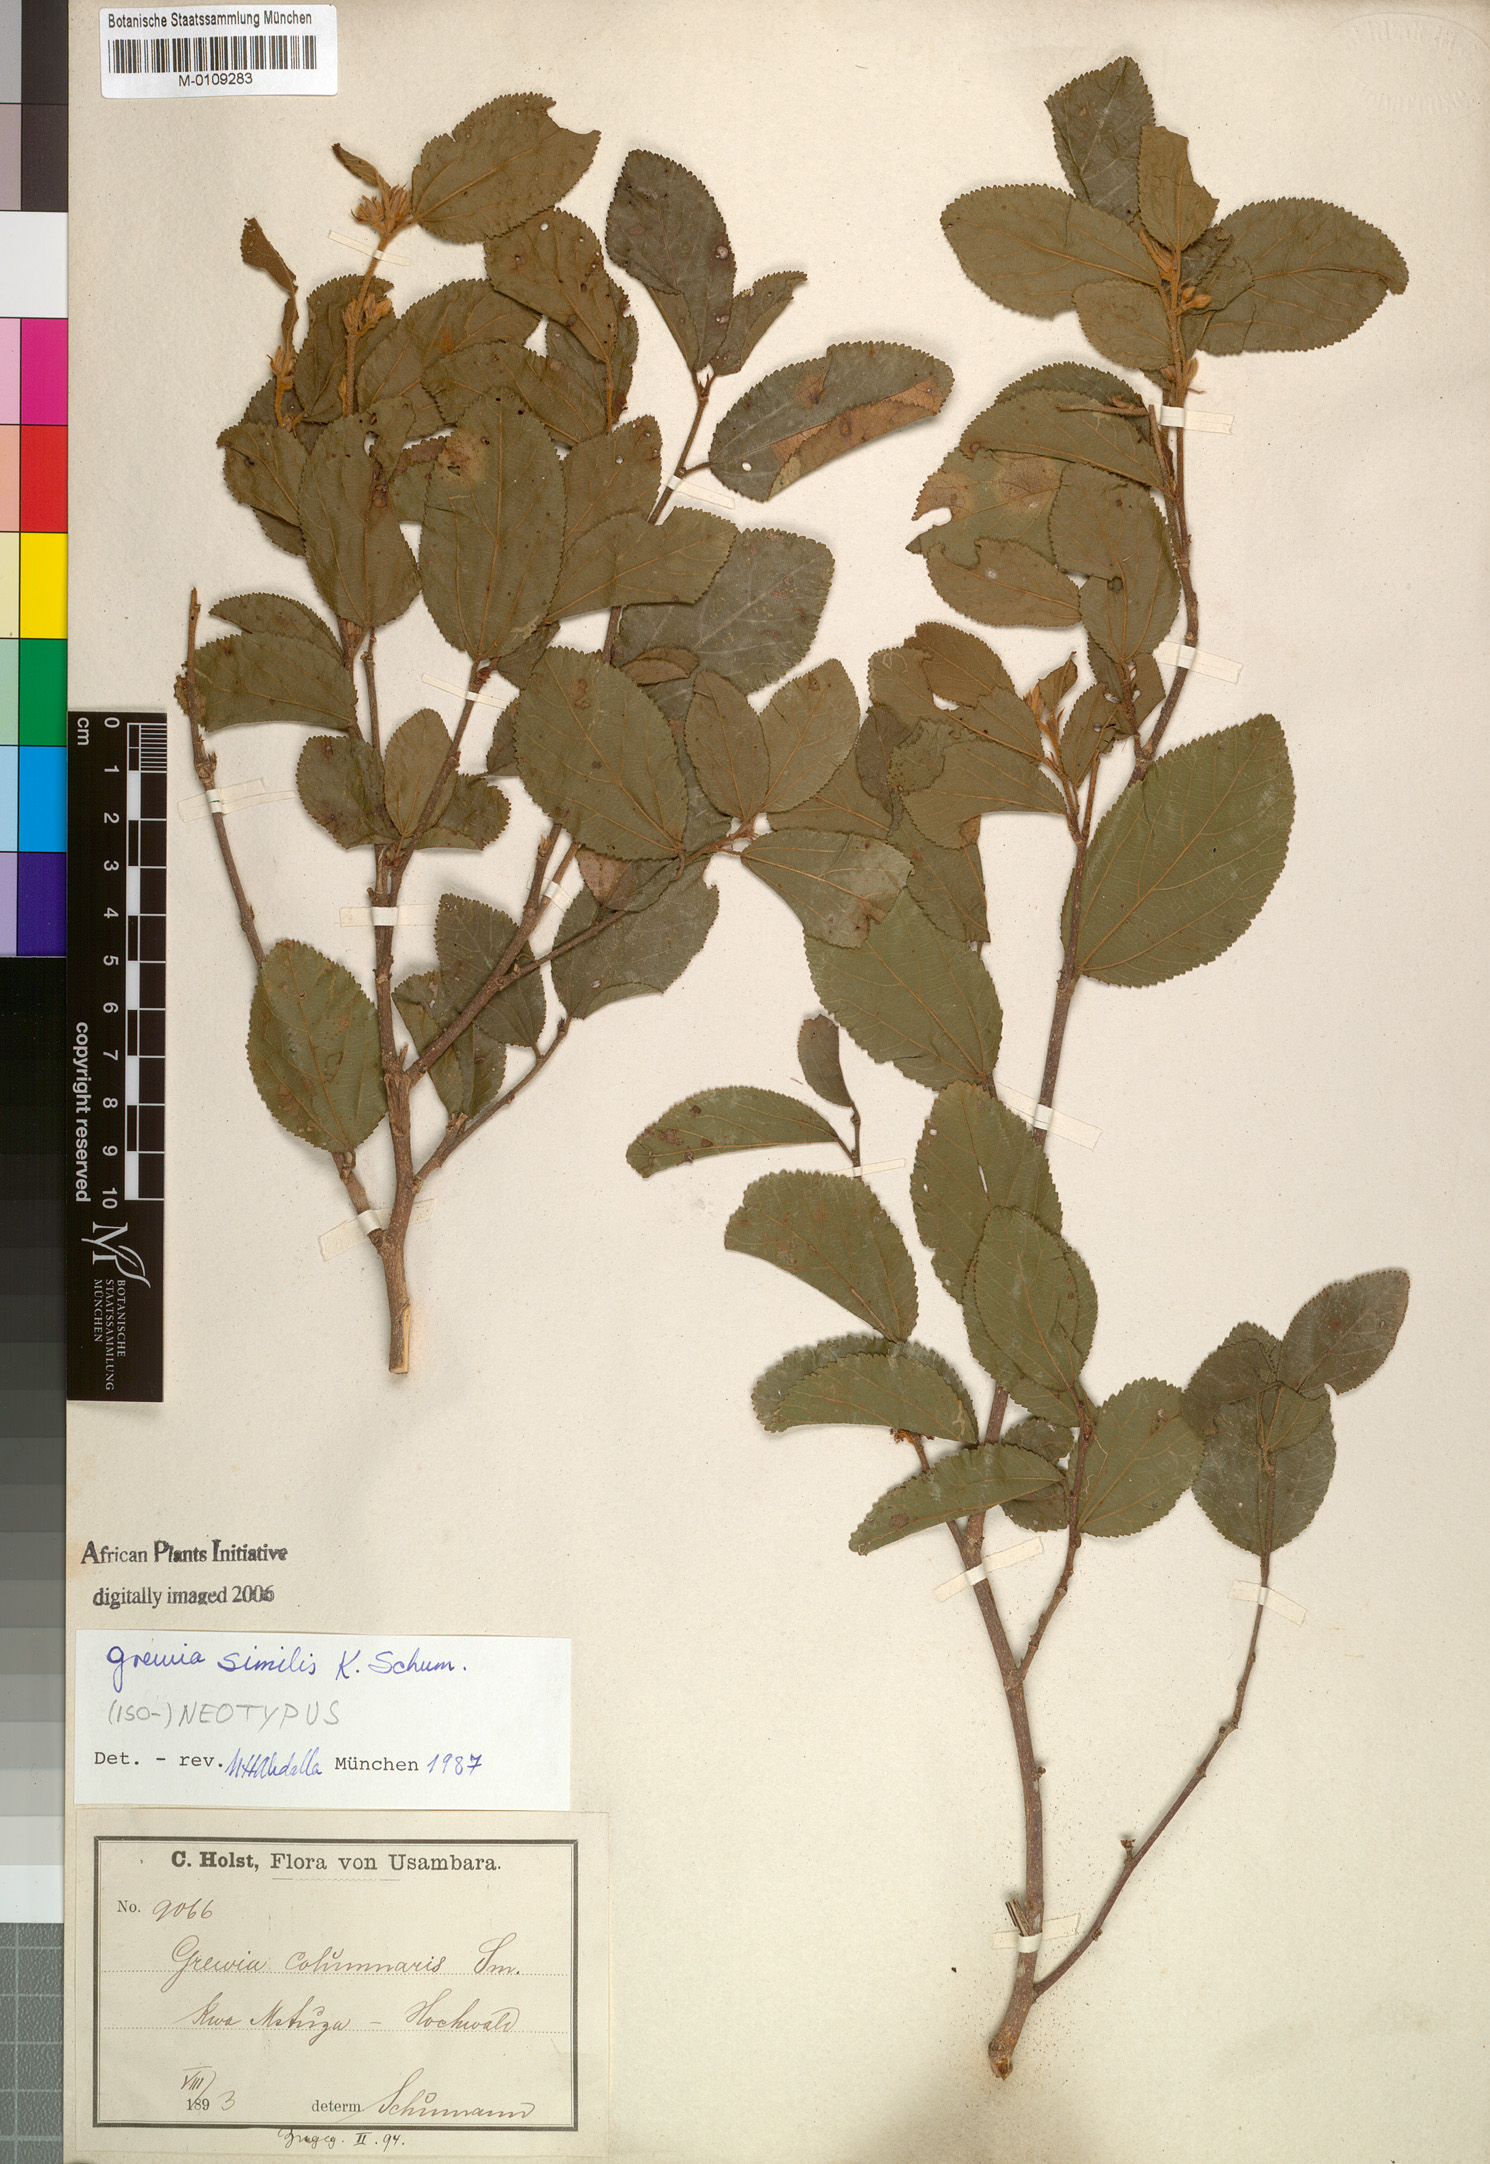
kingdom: Plantae
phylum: Tracheophyta
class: Magnoliopsida
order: Malvales
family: Malvaceae
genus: Grewia
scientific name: Grewia similis
